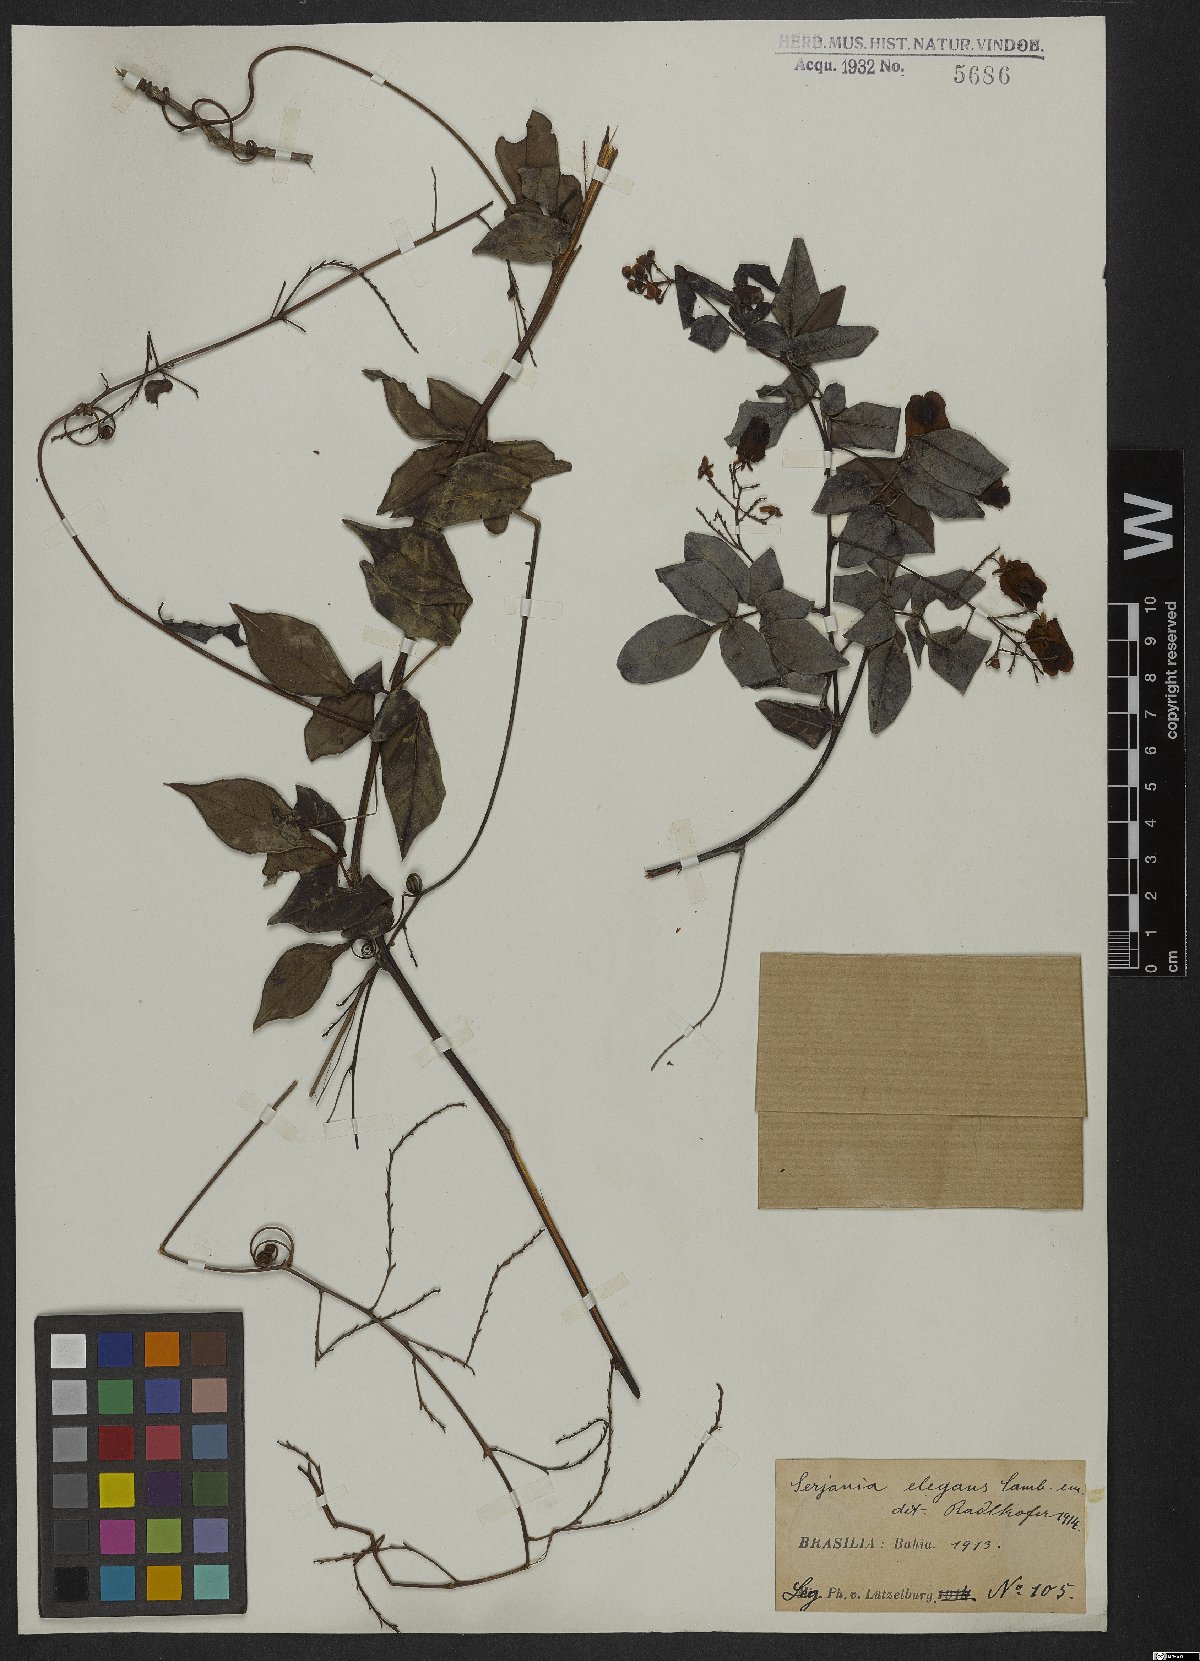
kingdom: Plantae
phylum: Tracheophyta
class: Magnoliopsida
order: Sapindales
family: Sapindaceae
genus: Serjania
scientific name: Serjania elegans
